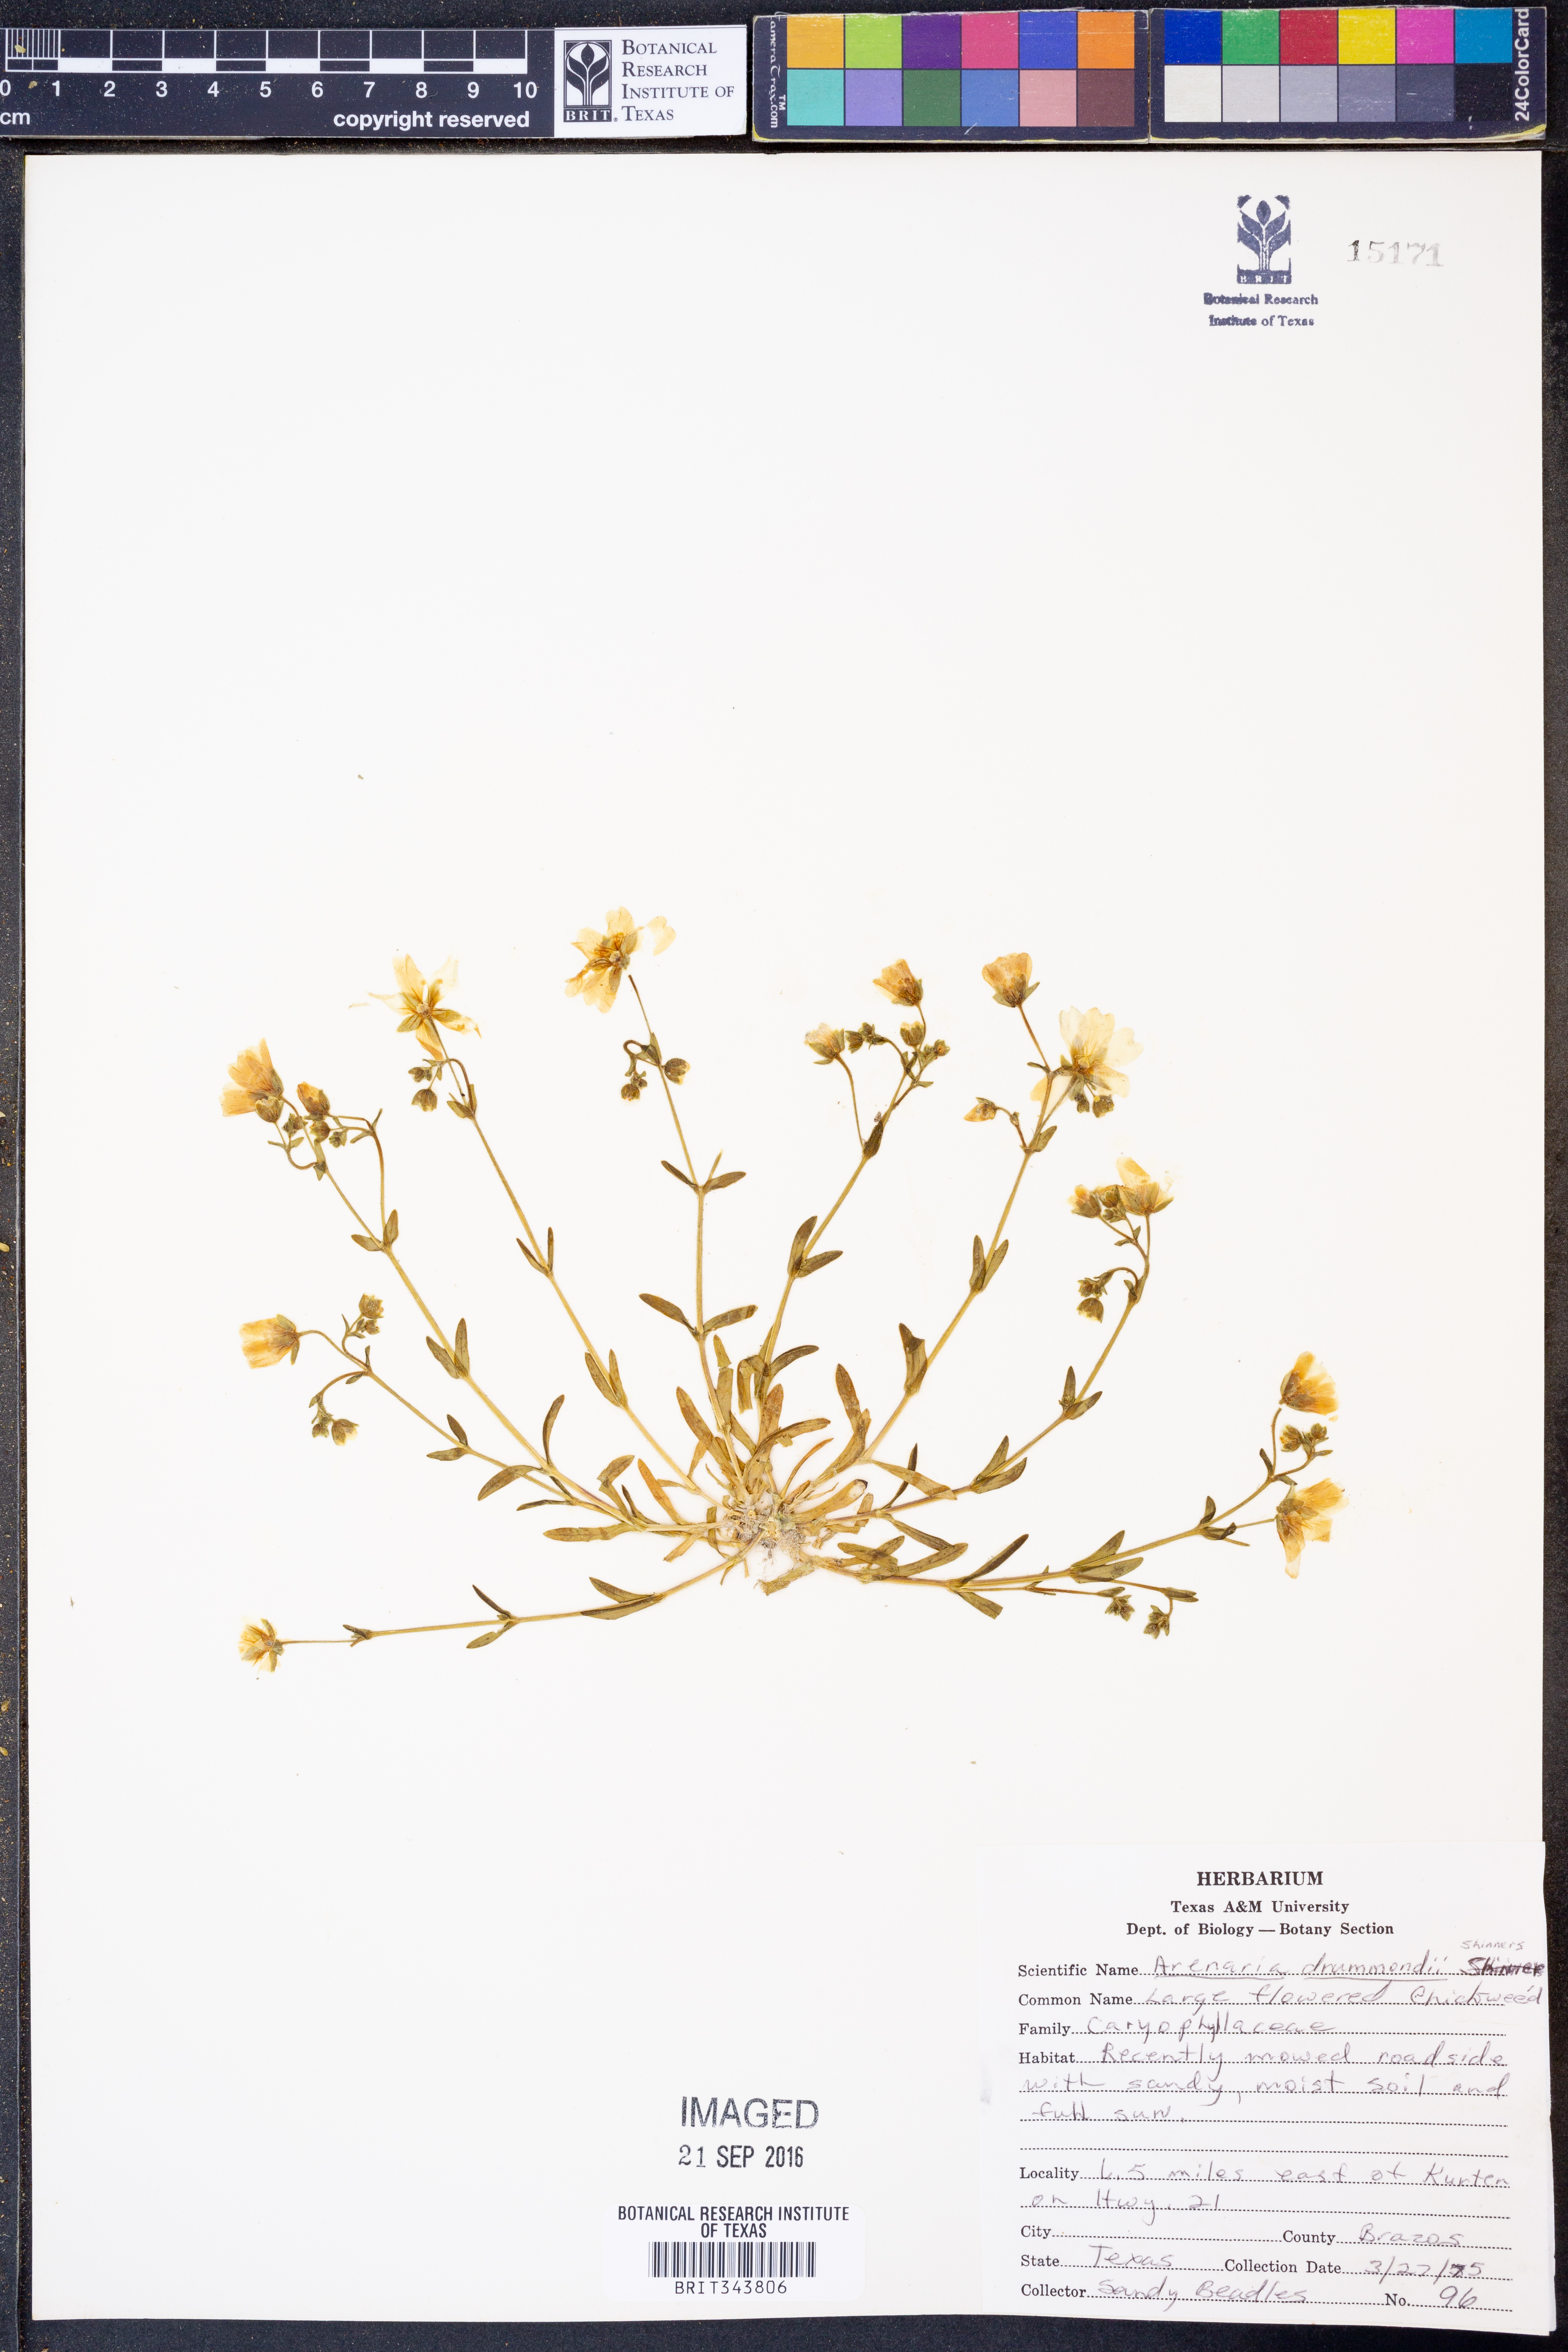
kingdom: Plantae
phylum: Tracheophyta
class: Magnoliopsida
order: Caryophyllales
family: Caryophyllaceae
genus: Geocarpon
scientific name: Geocarpon nuttallii
